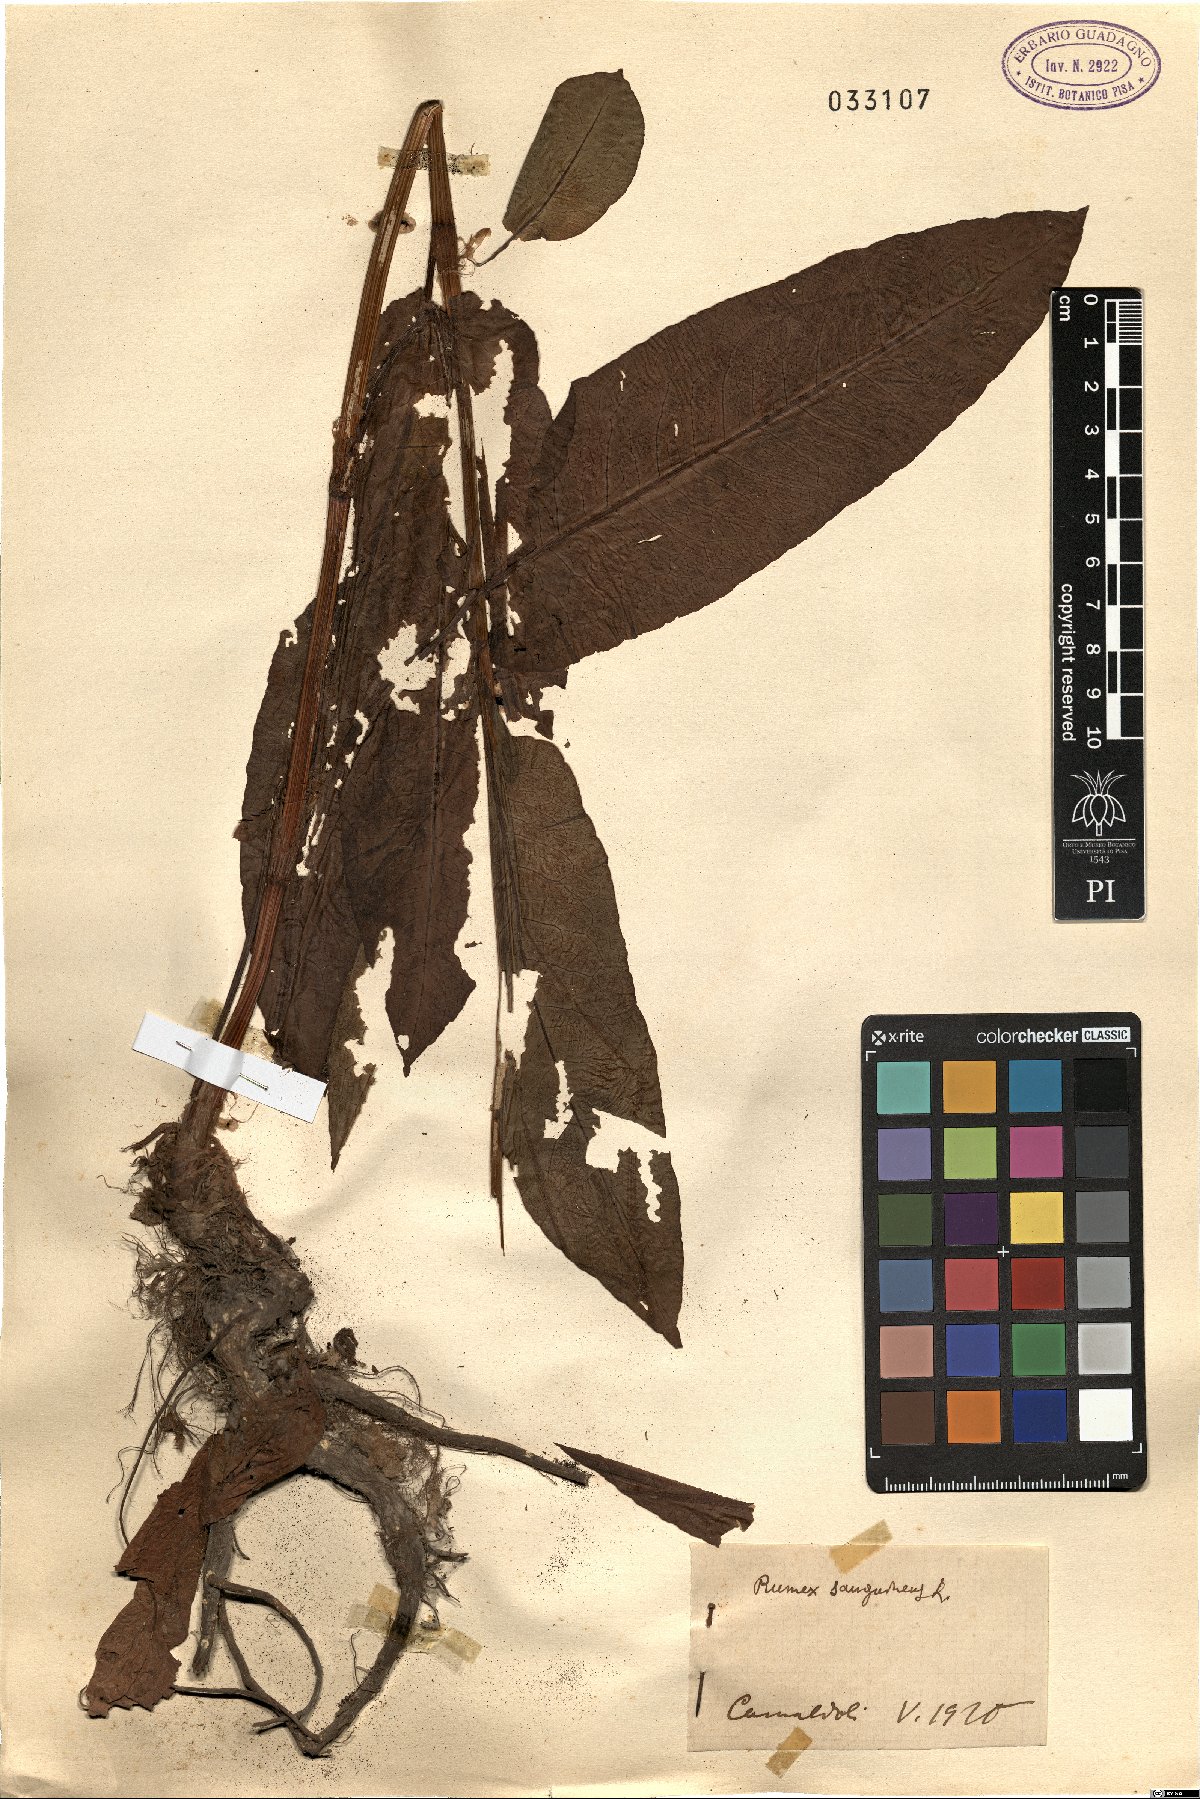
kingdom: Plantae
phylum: Tracheophyta
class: Magnoliopsida
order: Caryophyllales
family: Polygonaceae
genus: Rumex
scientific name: Rumex sanguineus
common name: Wood dock
